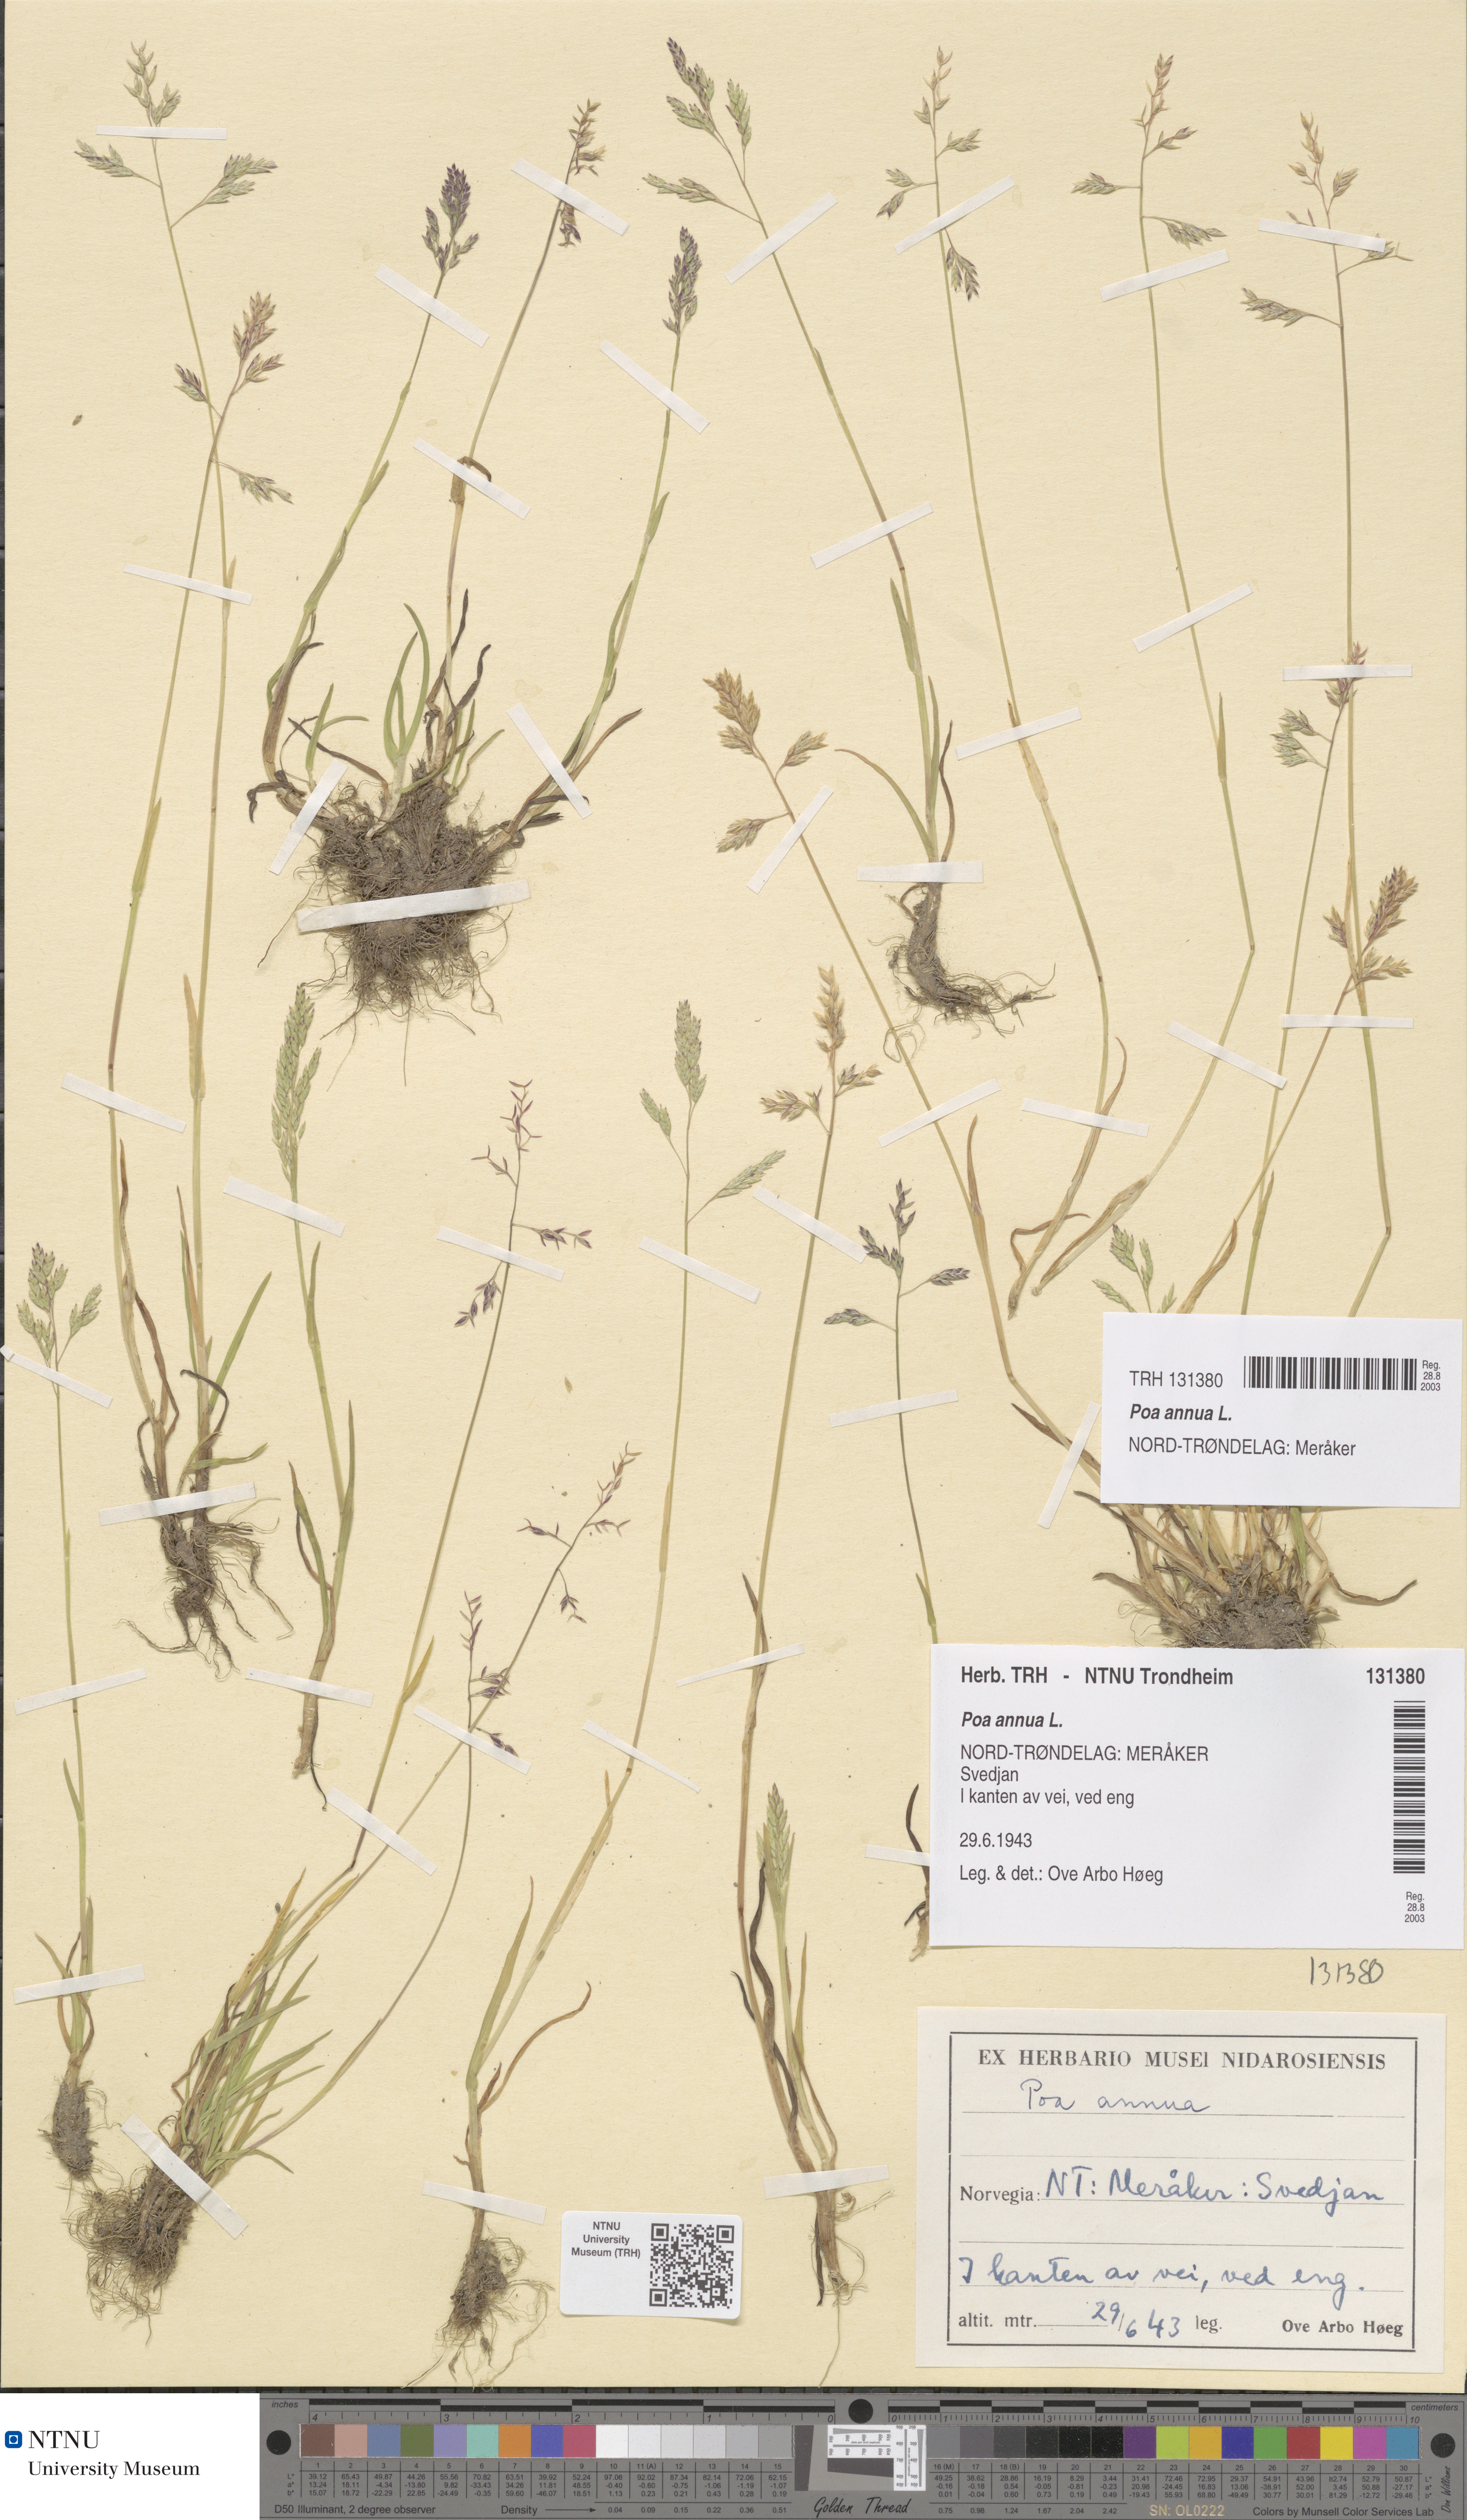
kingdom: Plantae
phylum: Tracheophyta
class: Liliopsida
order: Poales
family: Poaceae
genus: Poa
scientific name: Poa annua
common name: Annual bluegrass
